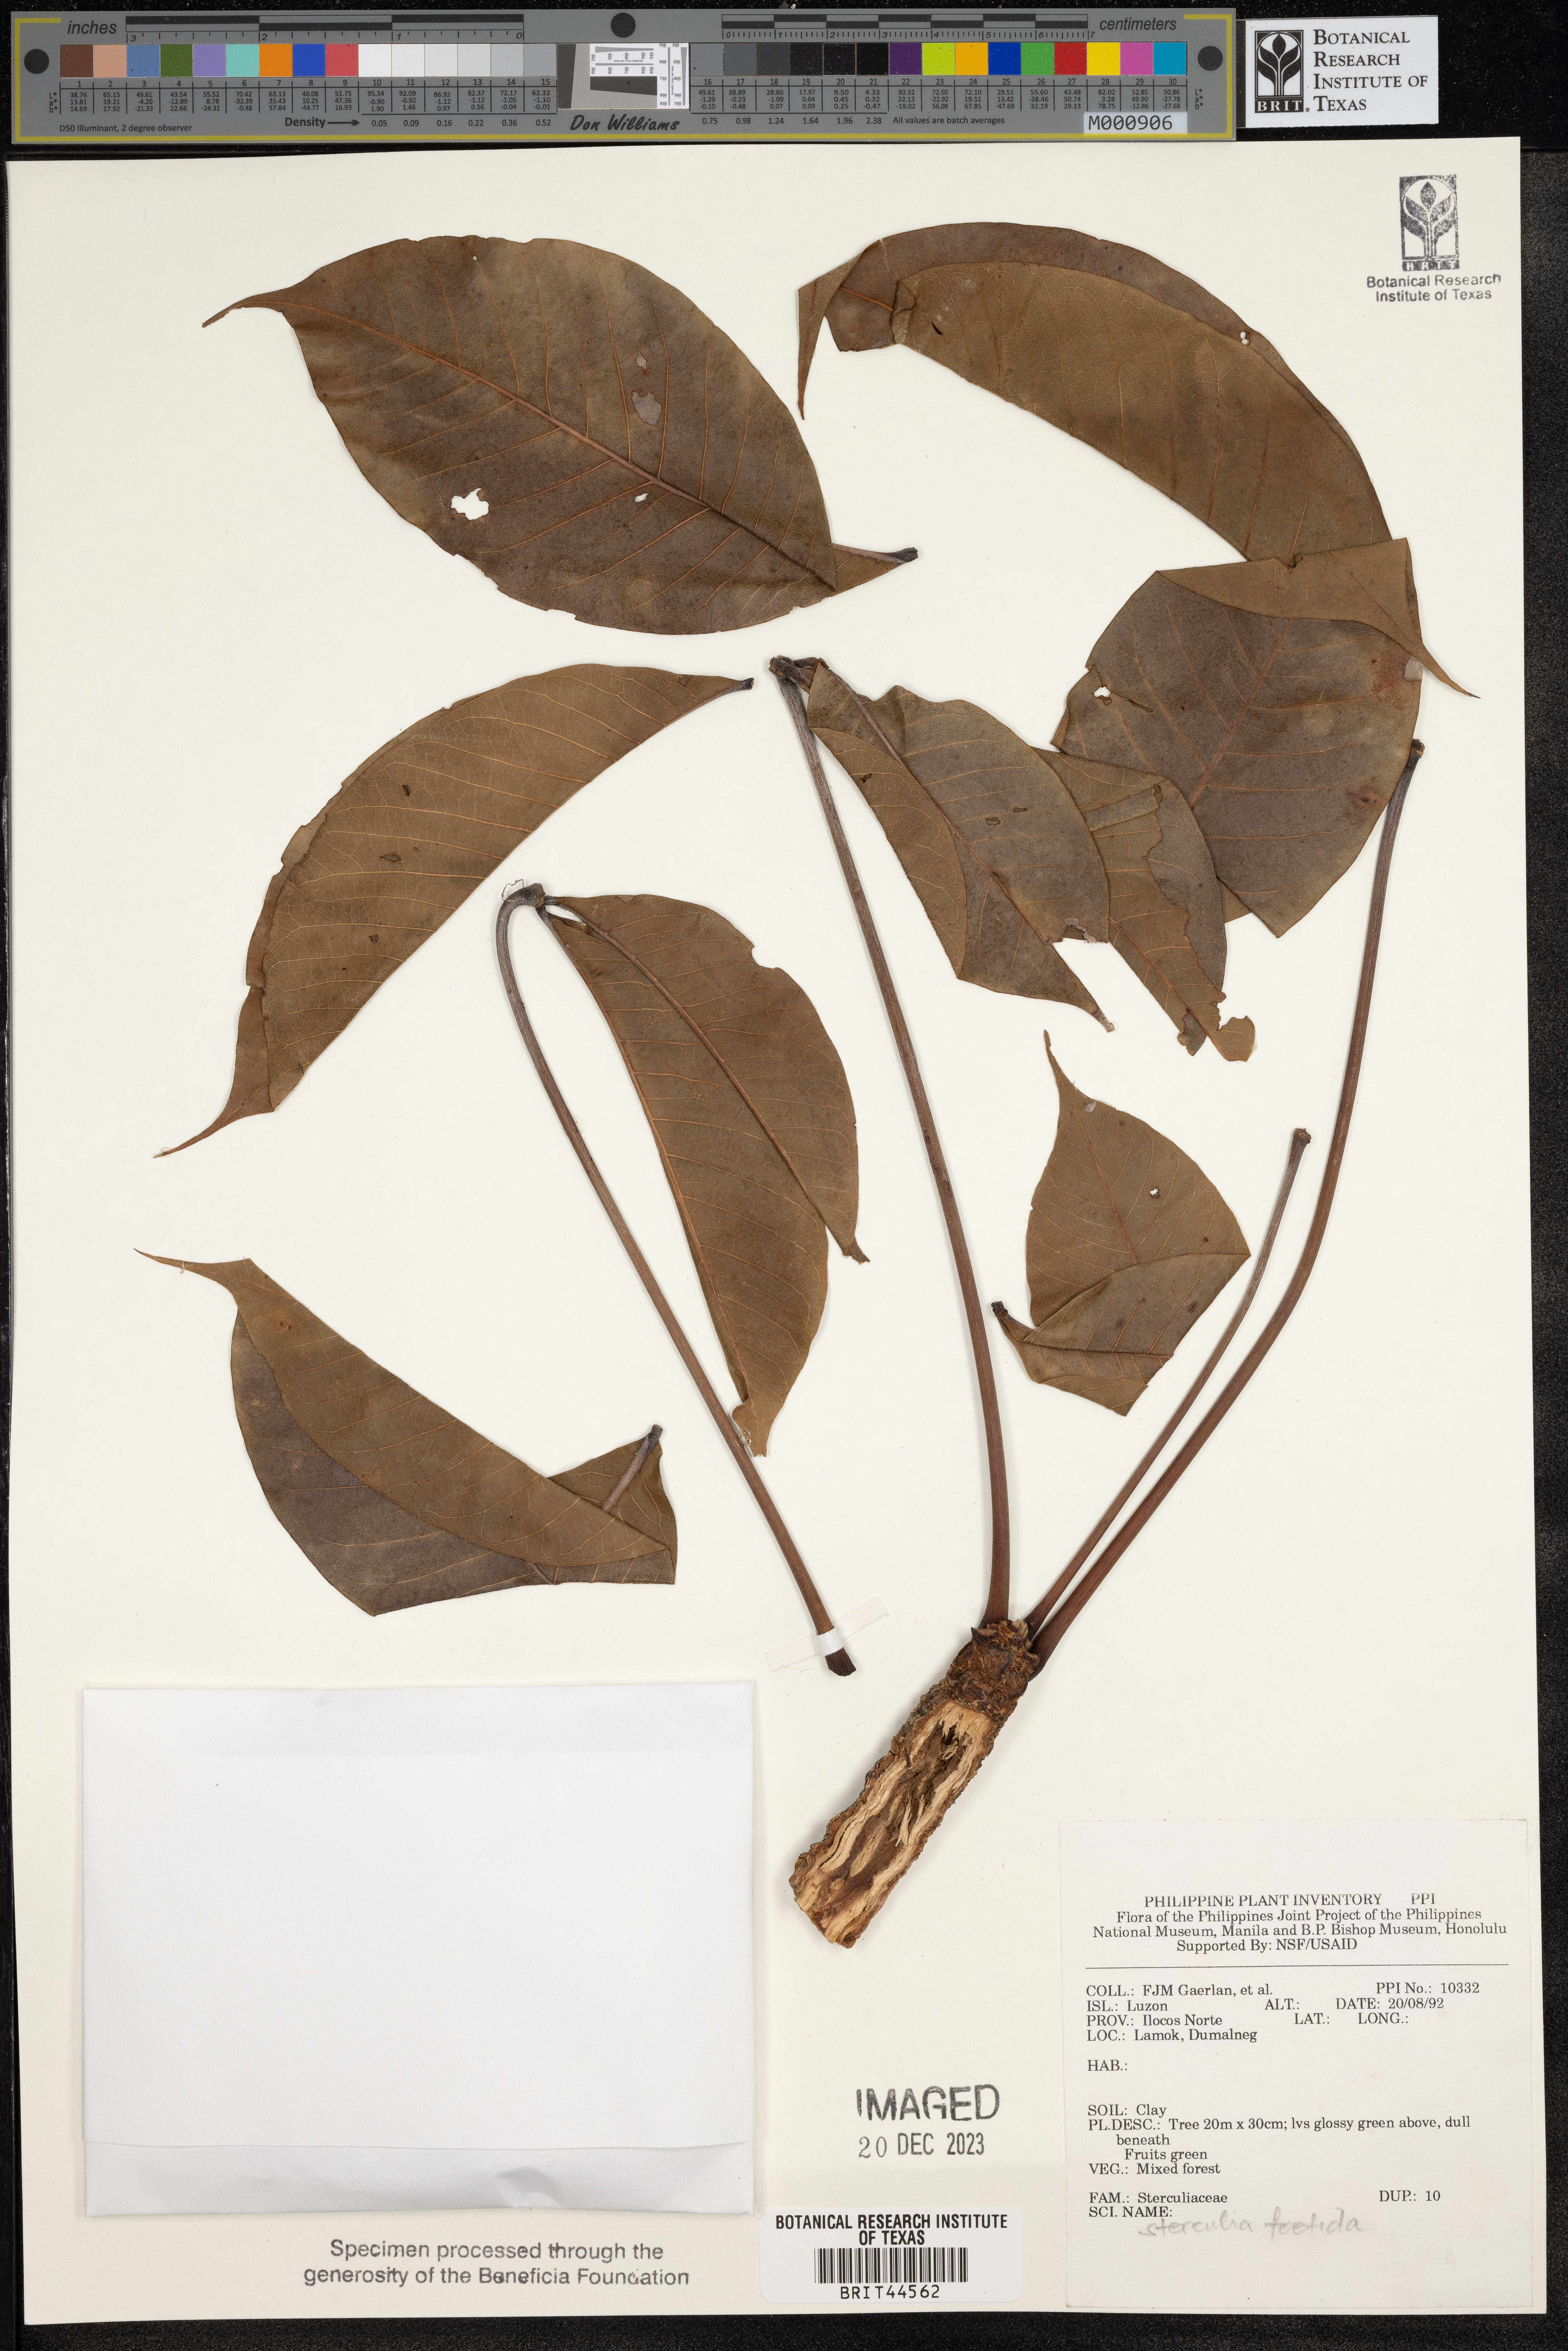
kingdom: Plantae
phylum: Tracheophyta
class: Magnoliopsida
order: Malvales
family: Malvaceae
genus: Sterculia
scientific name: Sterculia foetida
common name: Hazel sterculia
